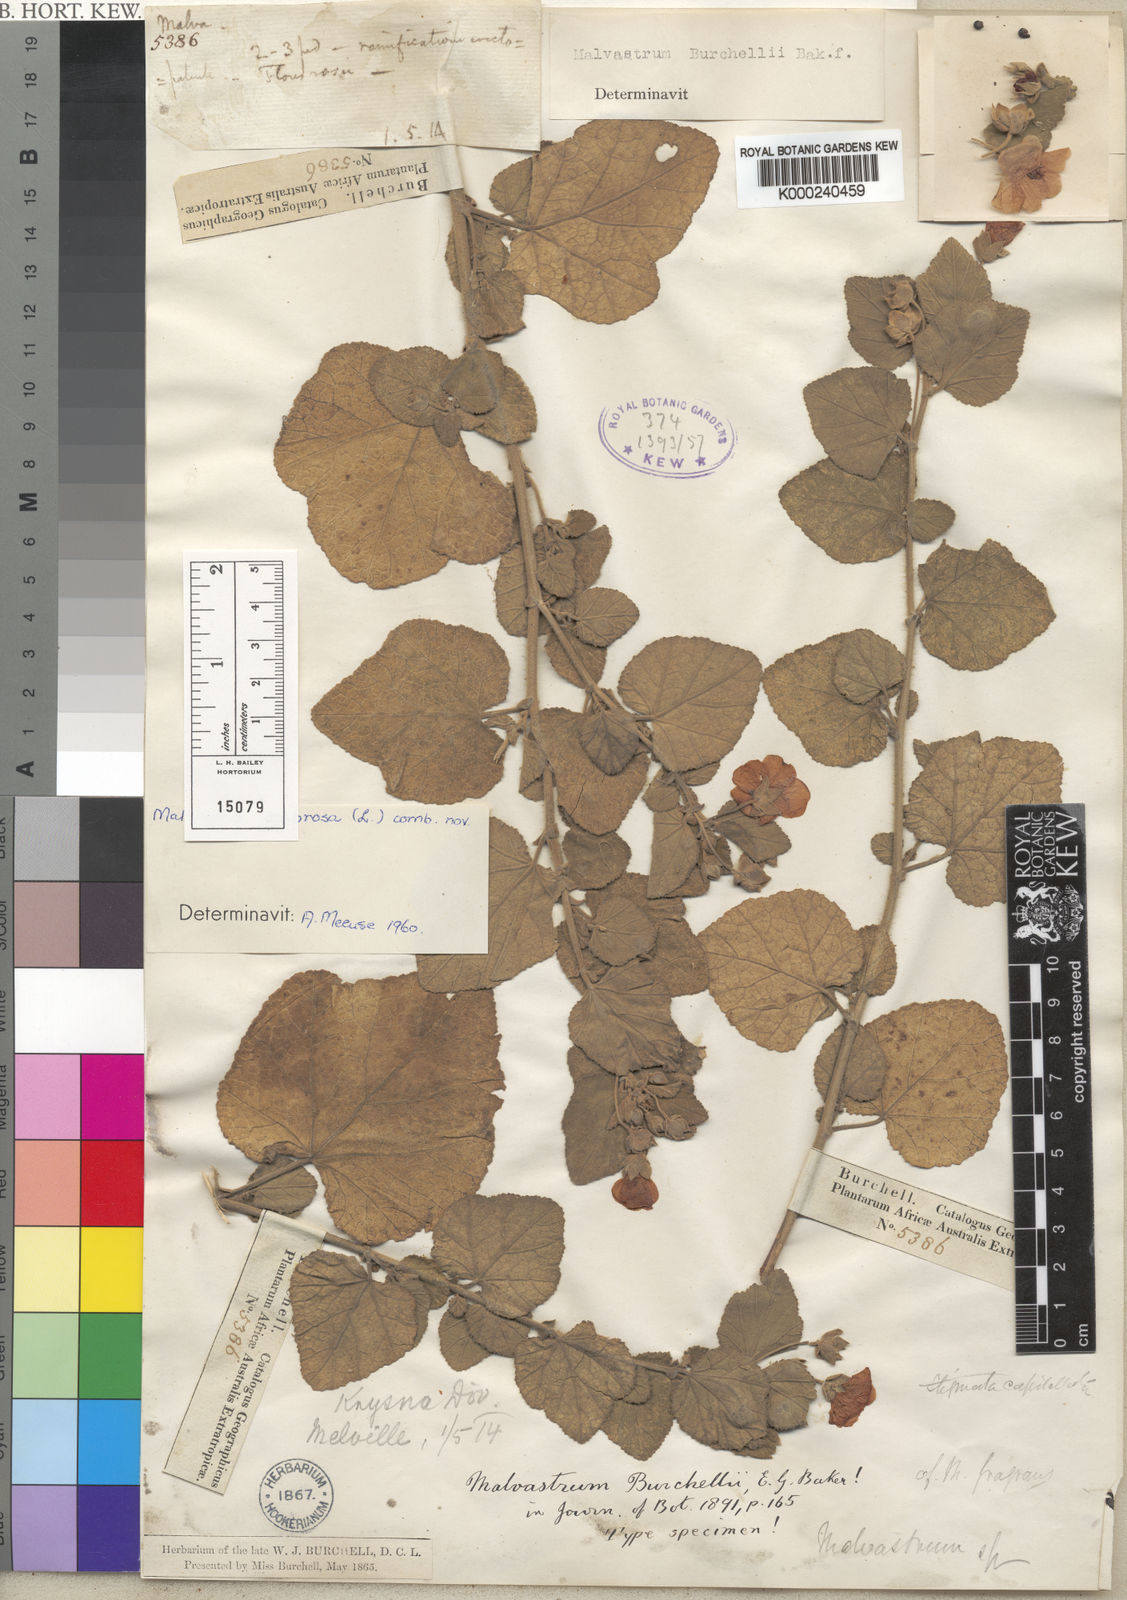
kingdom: Plantae
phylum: Tracheophyta
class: Magnoliopsida
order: Malvales
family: Malvaceae
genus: Anisodontea
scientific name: Anisodontea scabrosa
